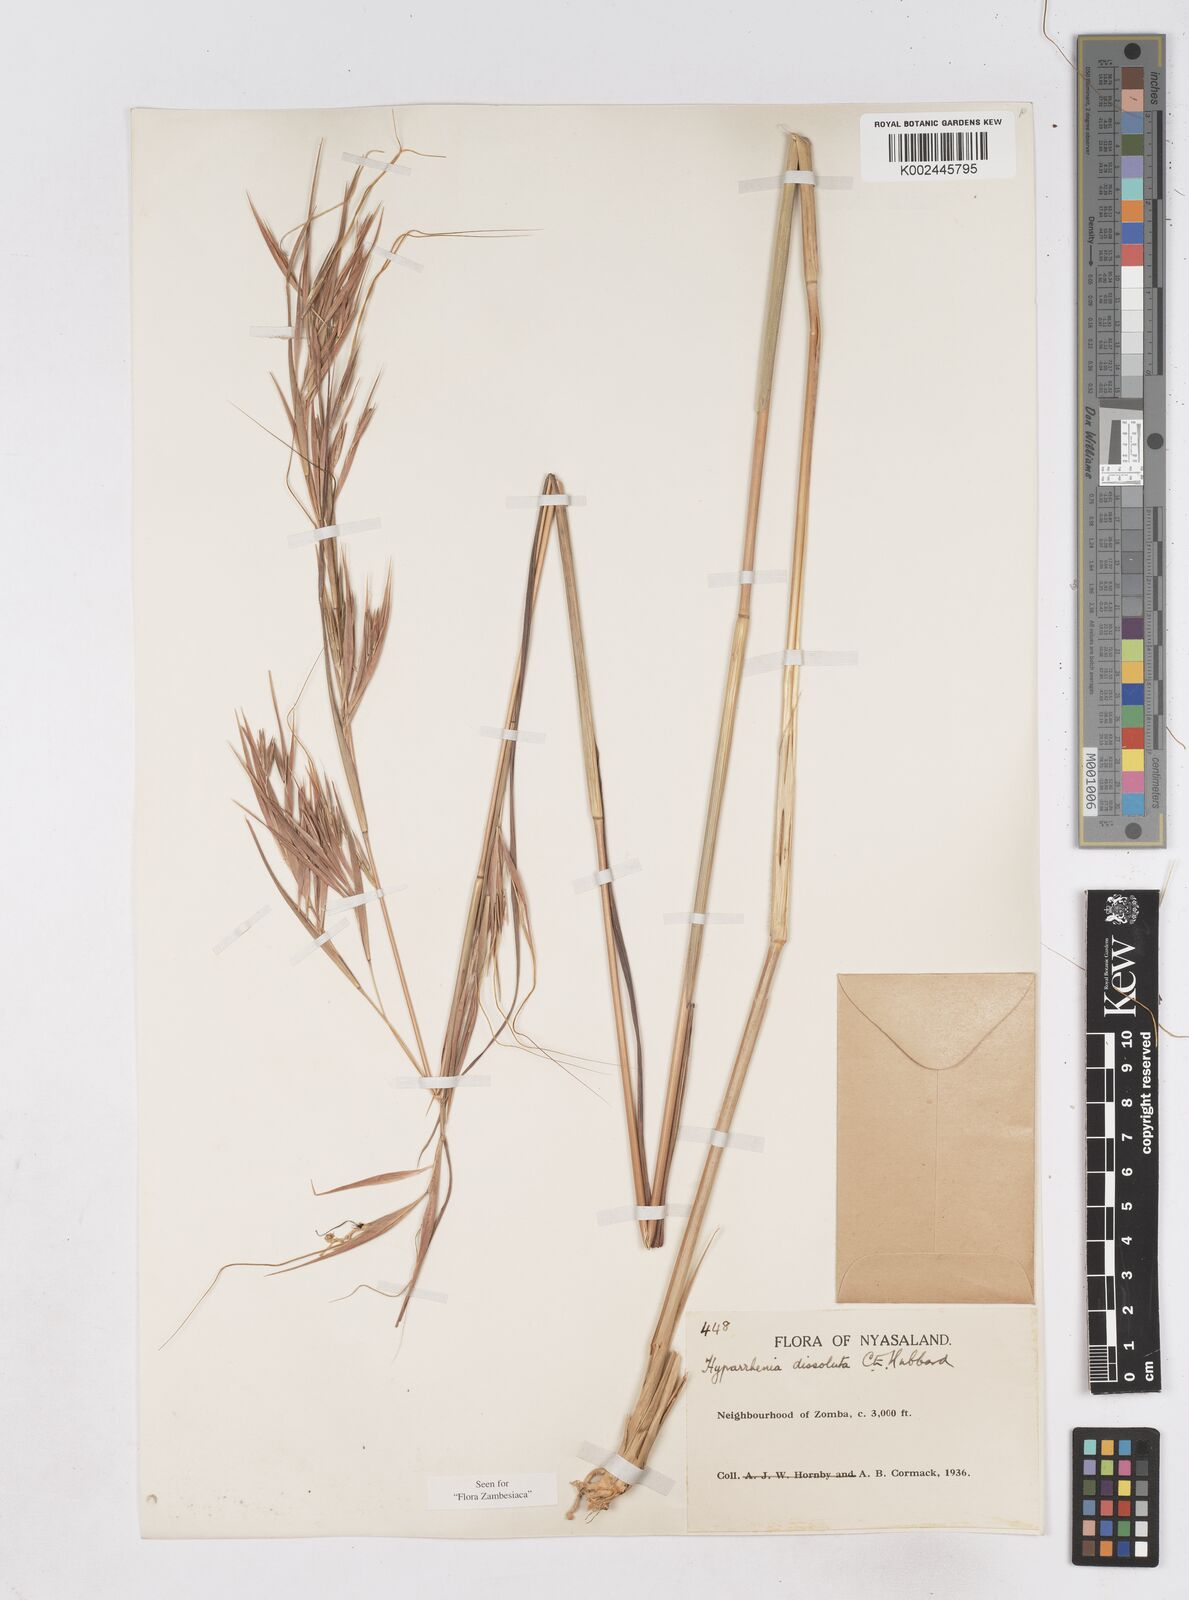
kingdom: Plantae
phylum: Tracheophyta
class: Liliopsida
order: Poales
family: Poaceae
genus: Hyperthelia
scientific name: Hyperthelia dissoluta
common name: Yellow thatching grass
